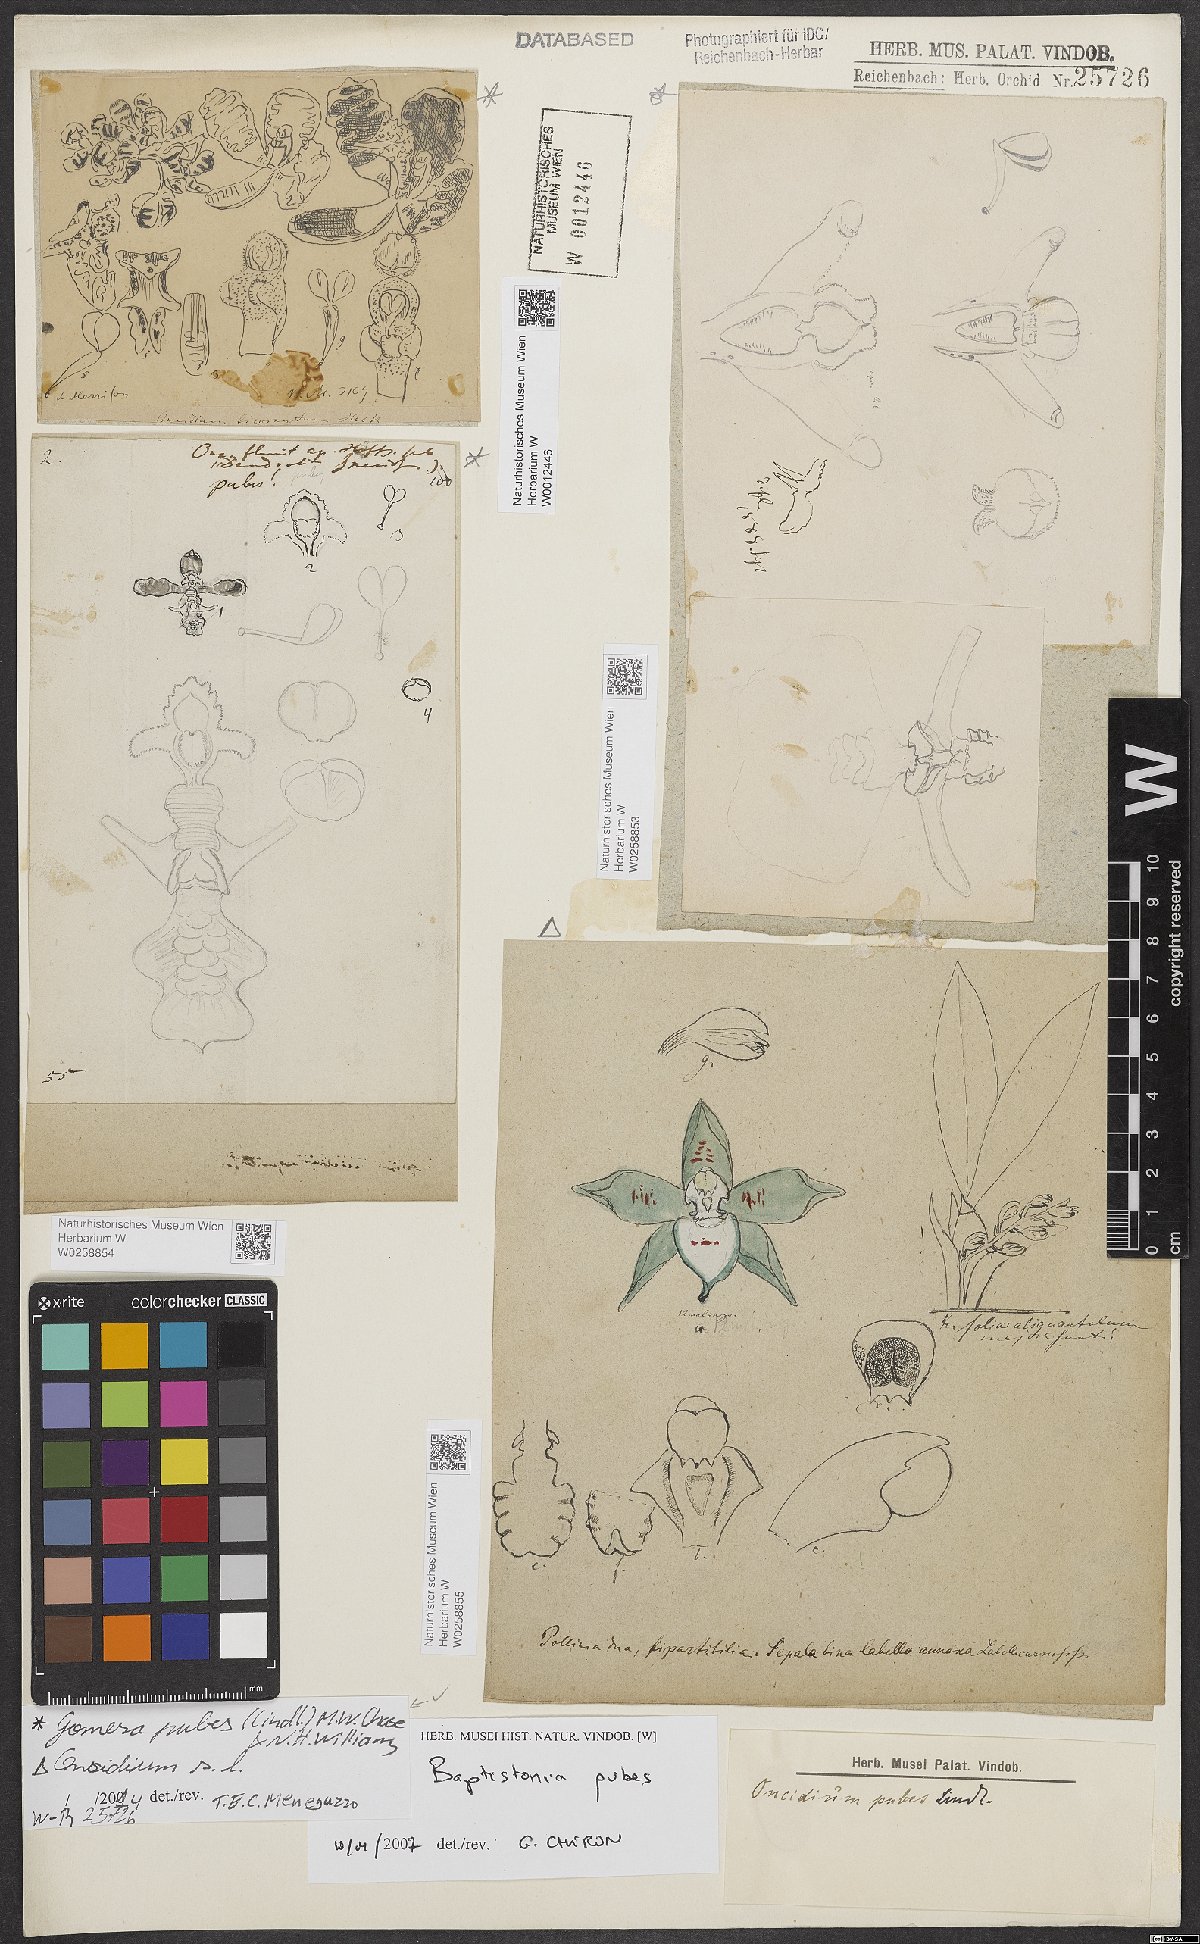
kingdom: Plantae
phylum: Tracheophyta
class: Liliopsida
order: Asparagales
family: Orchidaceae
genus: Gomesa
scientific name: Gomesa pubes
